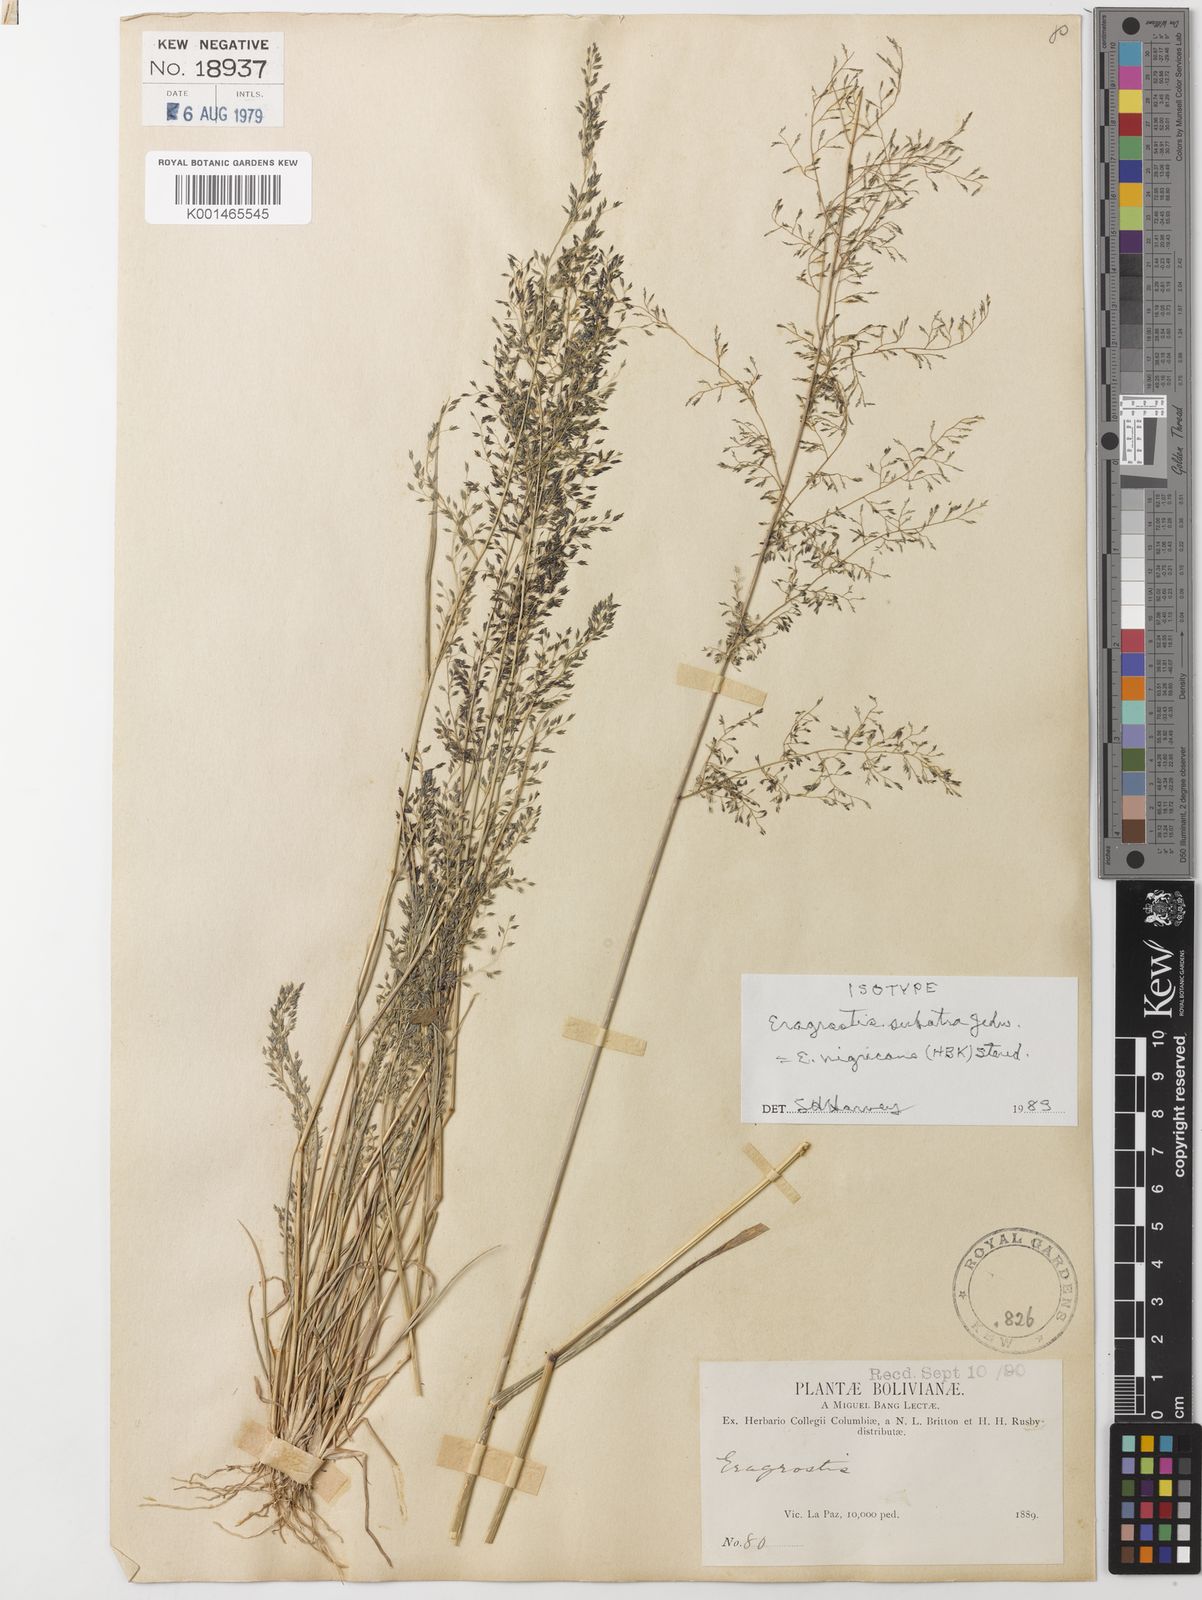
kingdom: Plantae
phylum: Tracheophyta
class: Liliopsida
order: Poales
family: Poaceae
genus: Eragrostis
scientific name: Eragrostis nigricans
